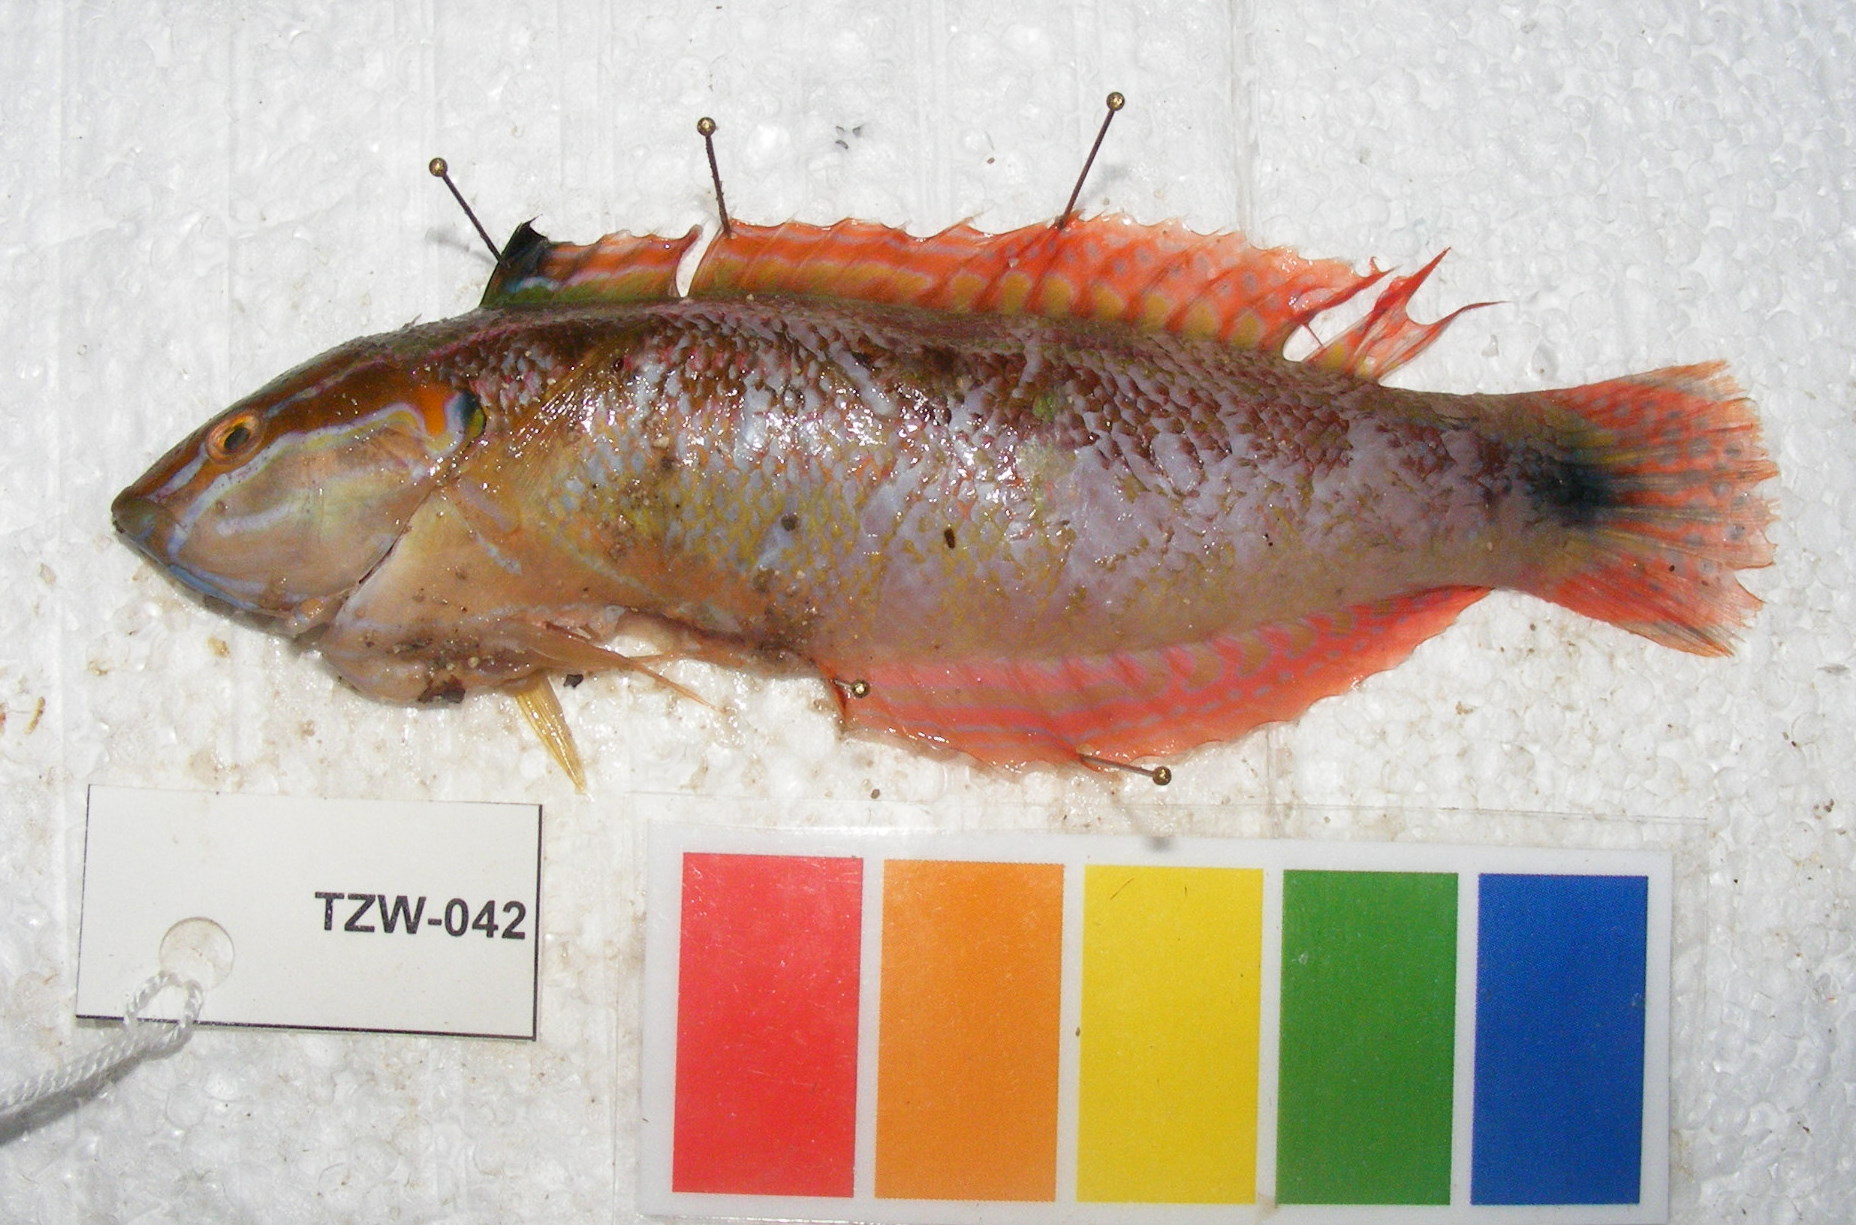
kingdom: Animalia
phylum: Chordata
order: Perciformes
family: Labridae
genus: Coris
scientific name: Coris caudimacula
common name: Spottail coris
